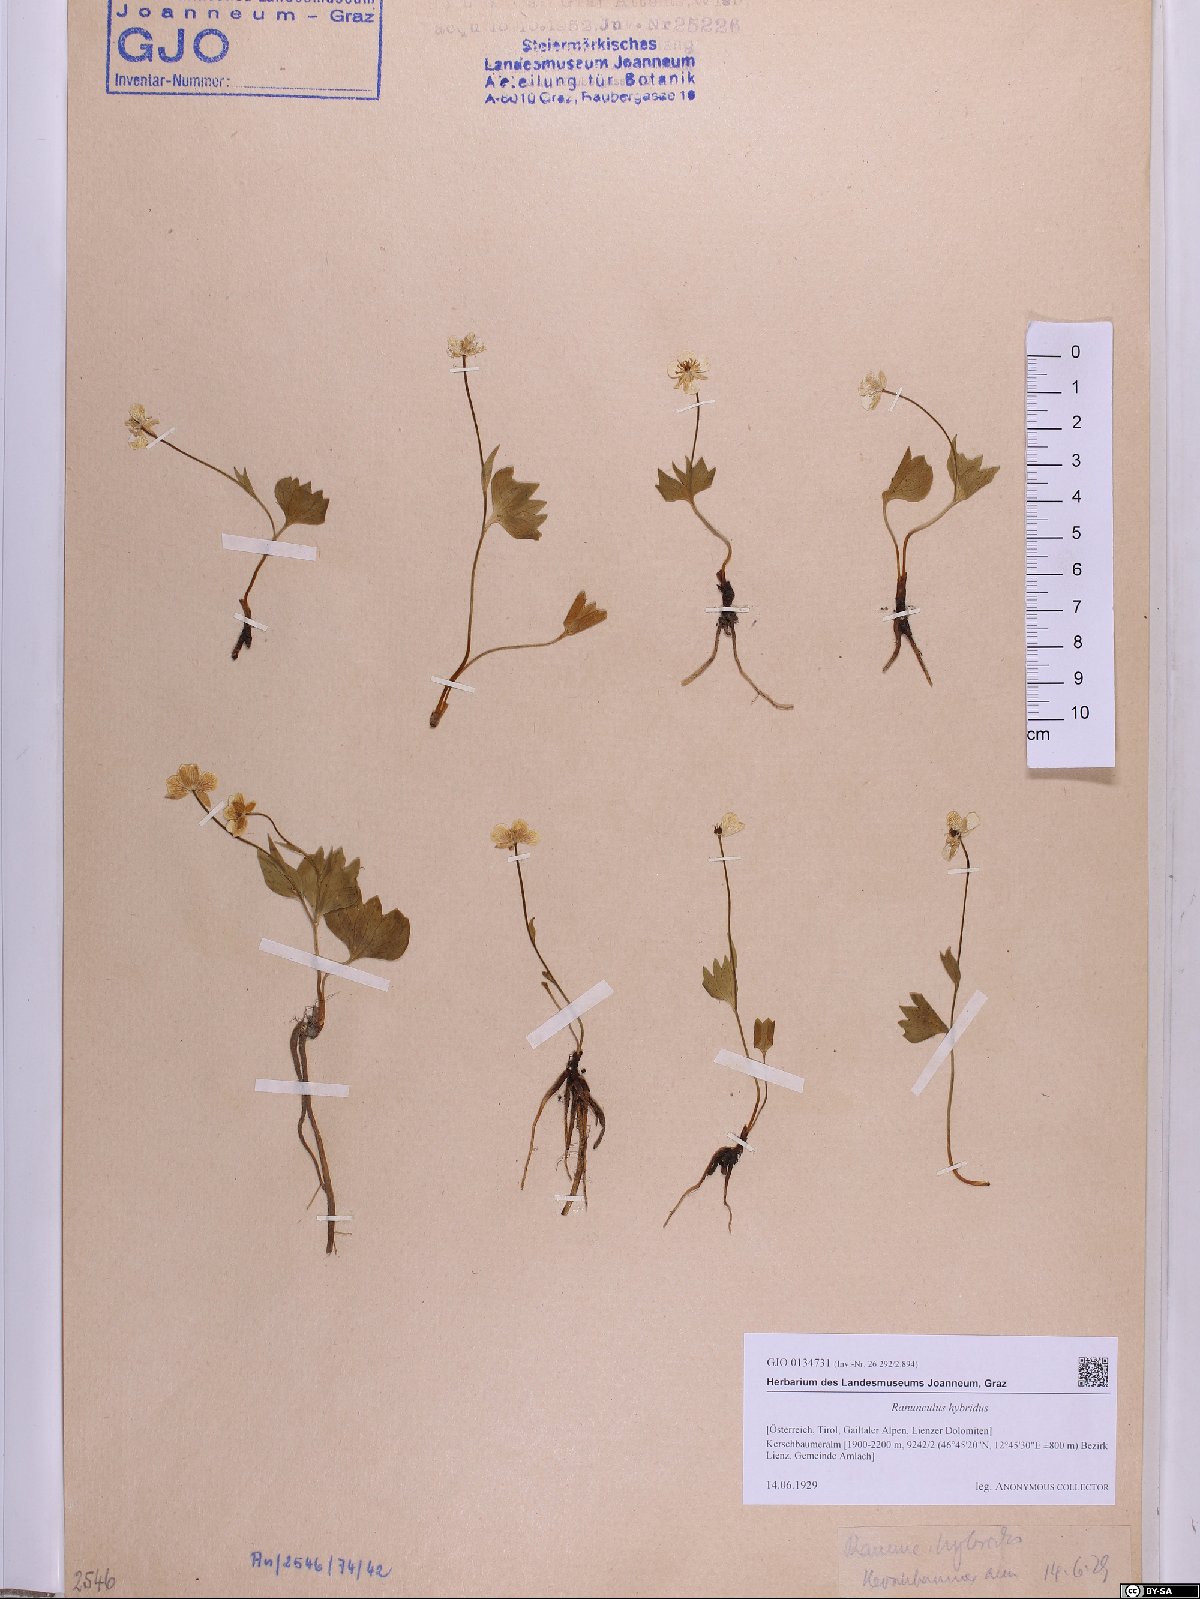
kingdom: Plantae
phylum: Tracheophyta
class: Magnoliopsida
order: Ranunculales
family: Ranunculaceae
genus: Ranunculus
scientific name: Ranunculus hybridus
